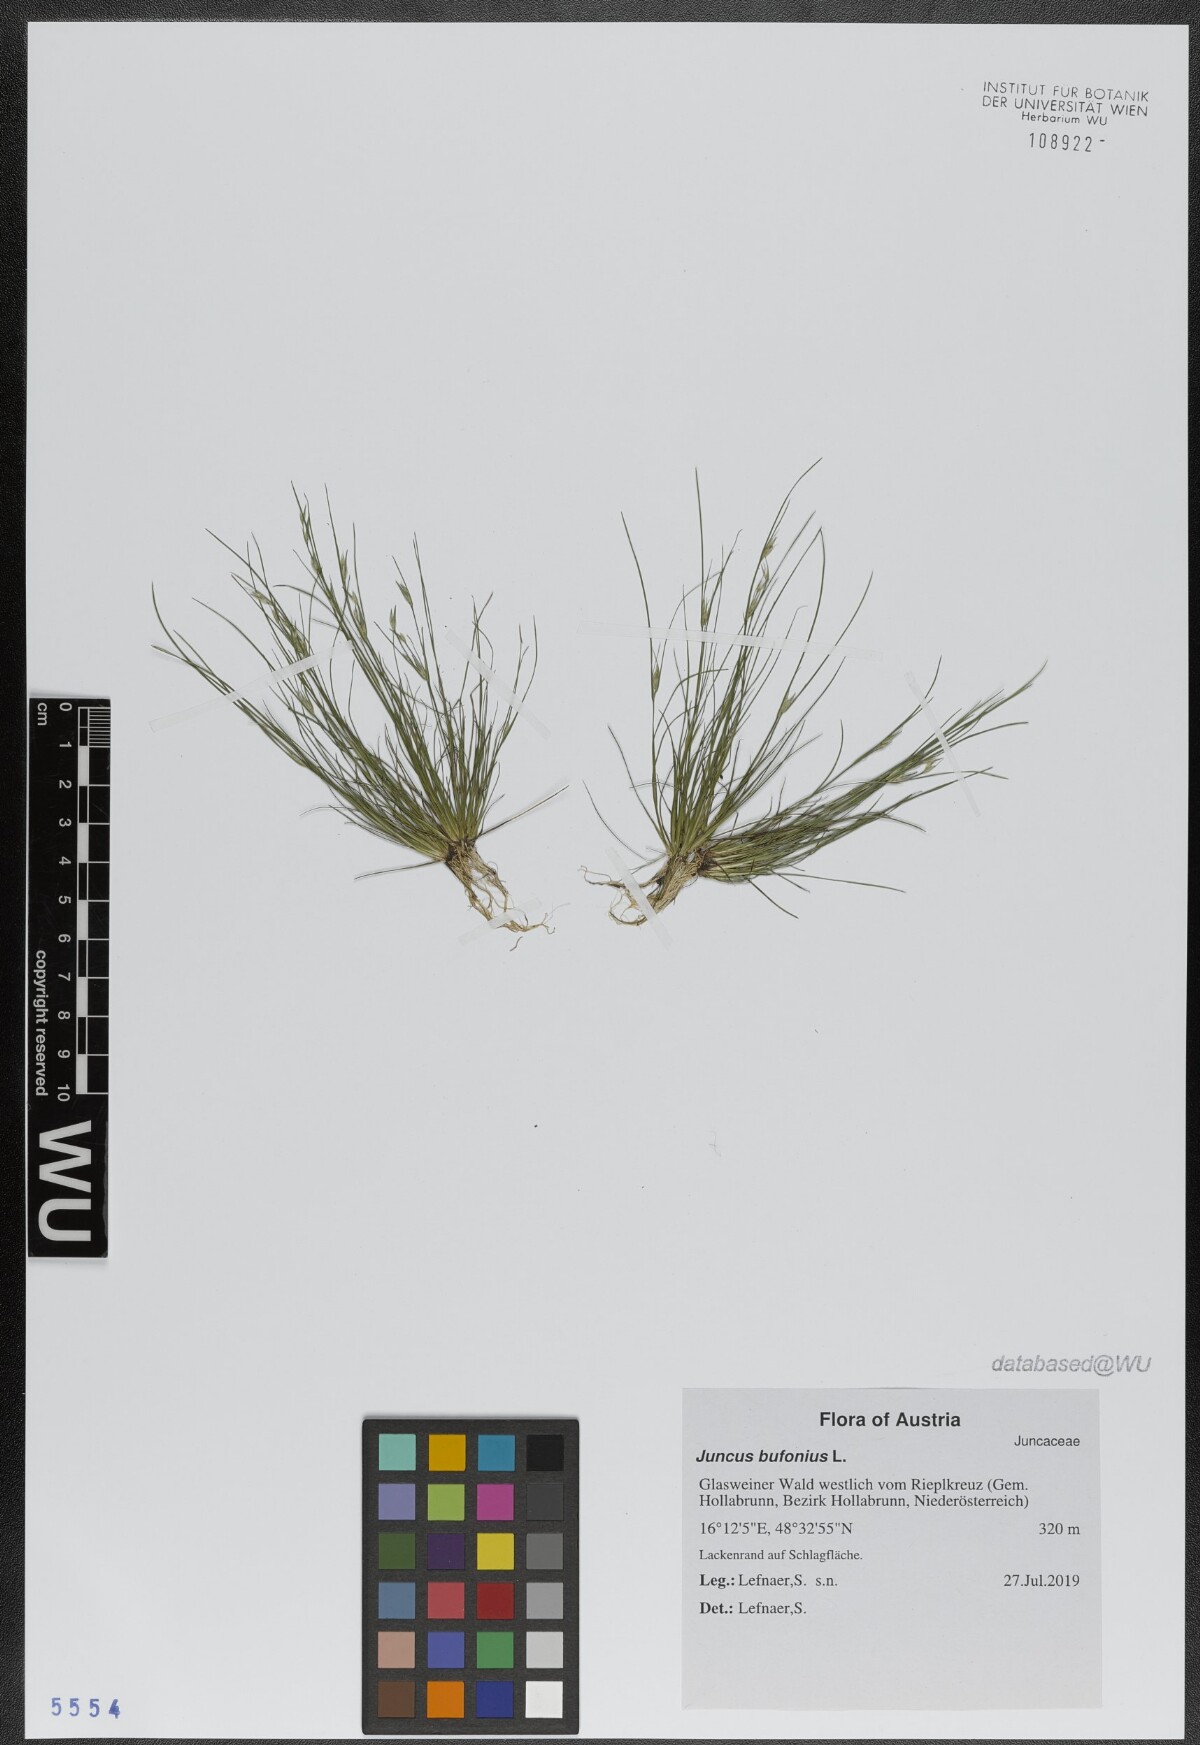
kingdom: Plantae
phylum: Tracheophyta
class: Liliopsida
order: Poales
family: Juncaceae
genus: Juncus
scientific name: Juncus bufonius
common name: Toad rush
